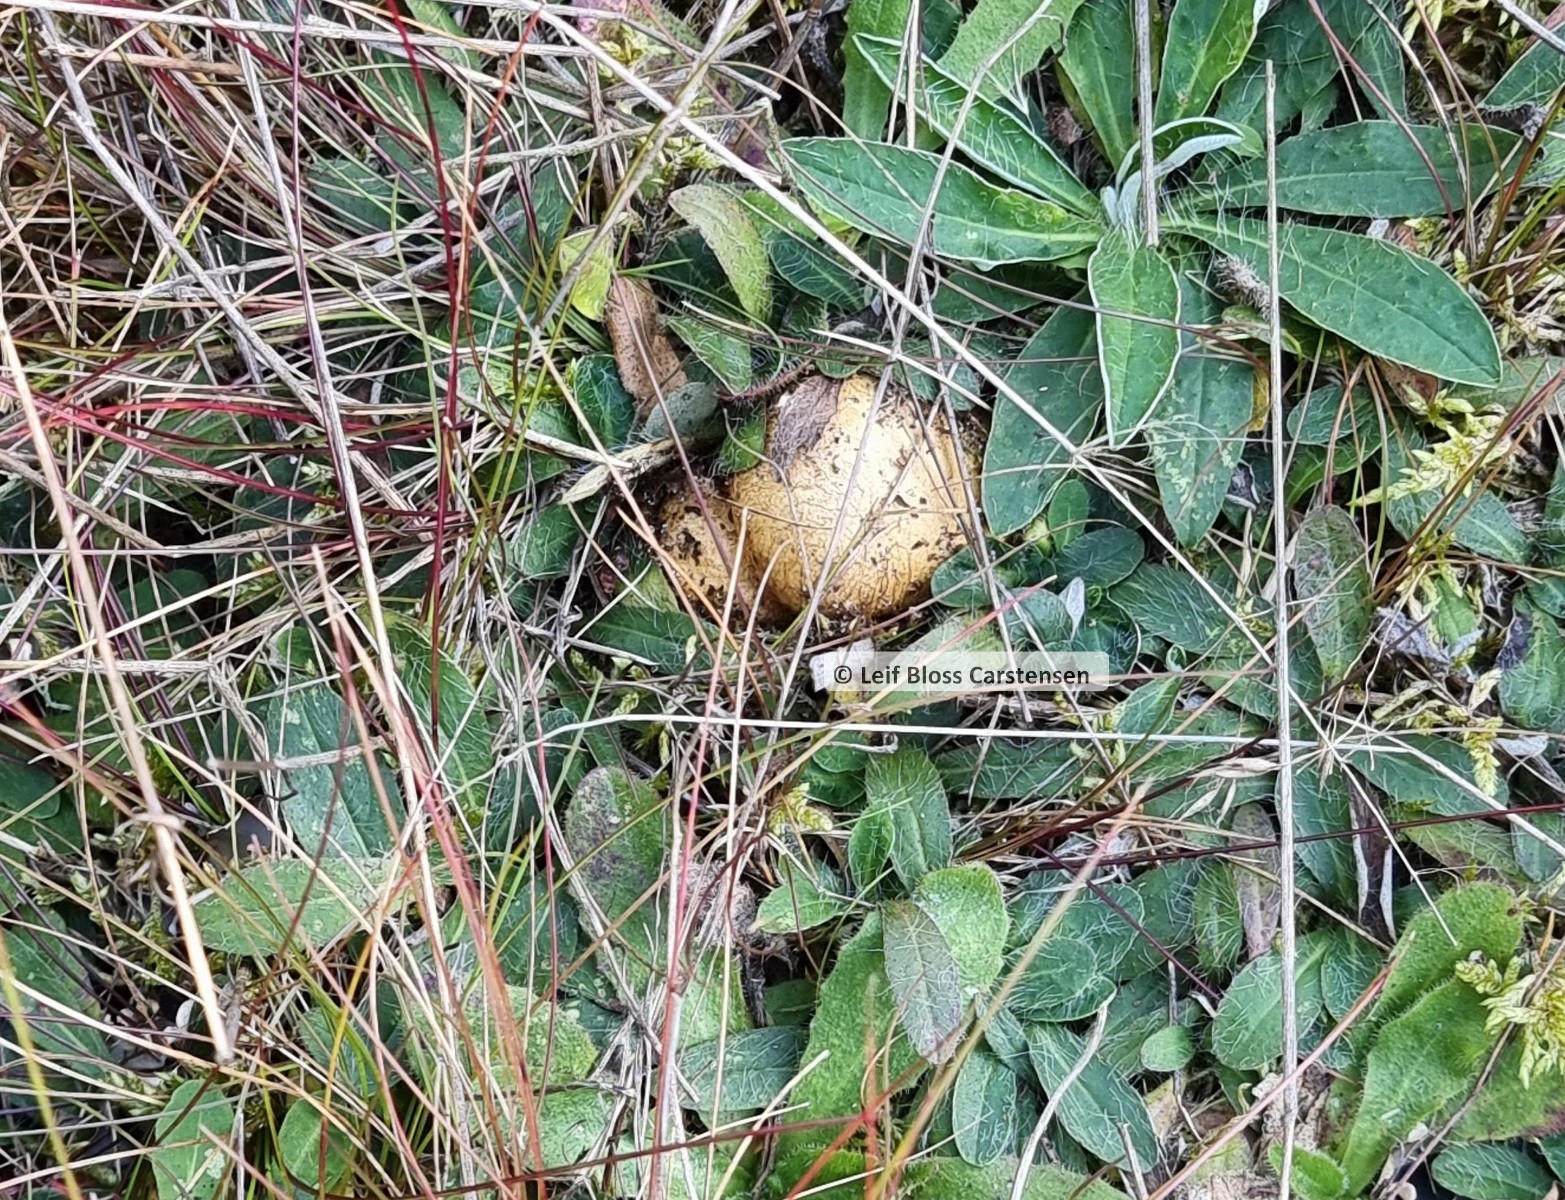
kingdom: Fungi
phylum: Basidiomycota
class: Agaricomycetes
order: Boletales
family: Rhizopogonaceae
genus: Rhizopogon
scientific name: Rhizopogon obtextus
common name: gul skægtrøffel
